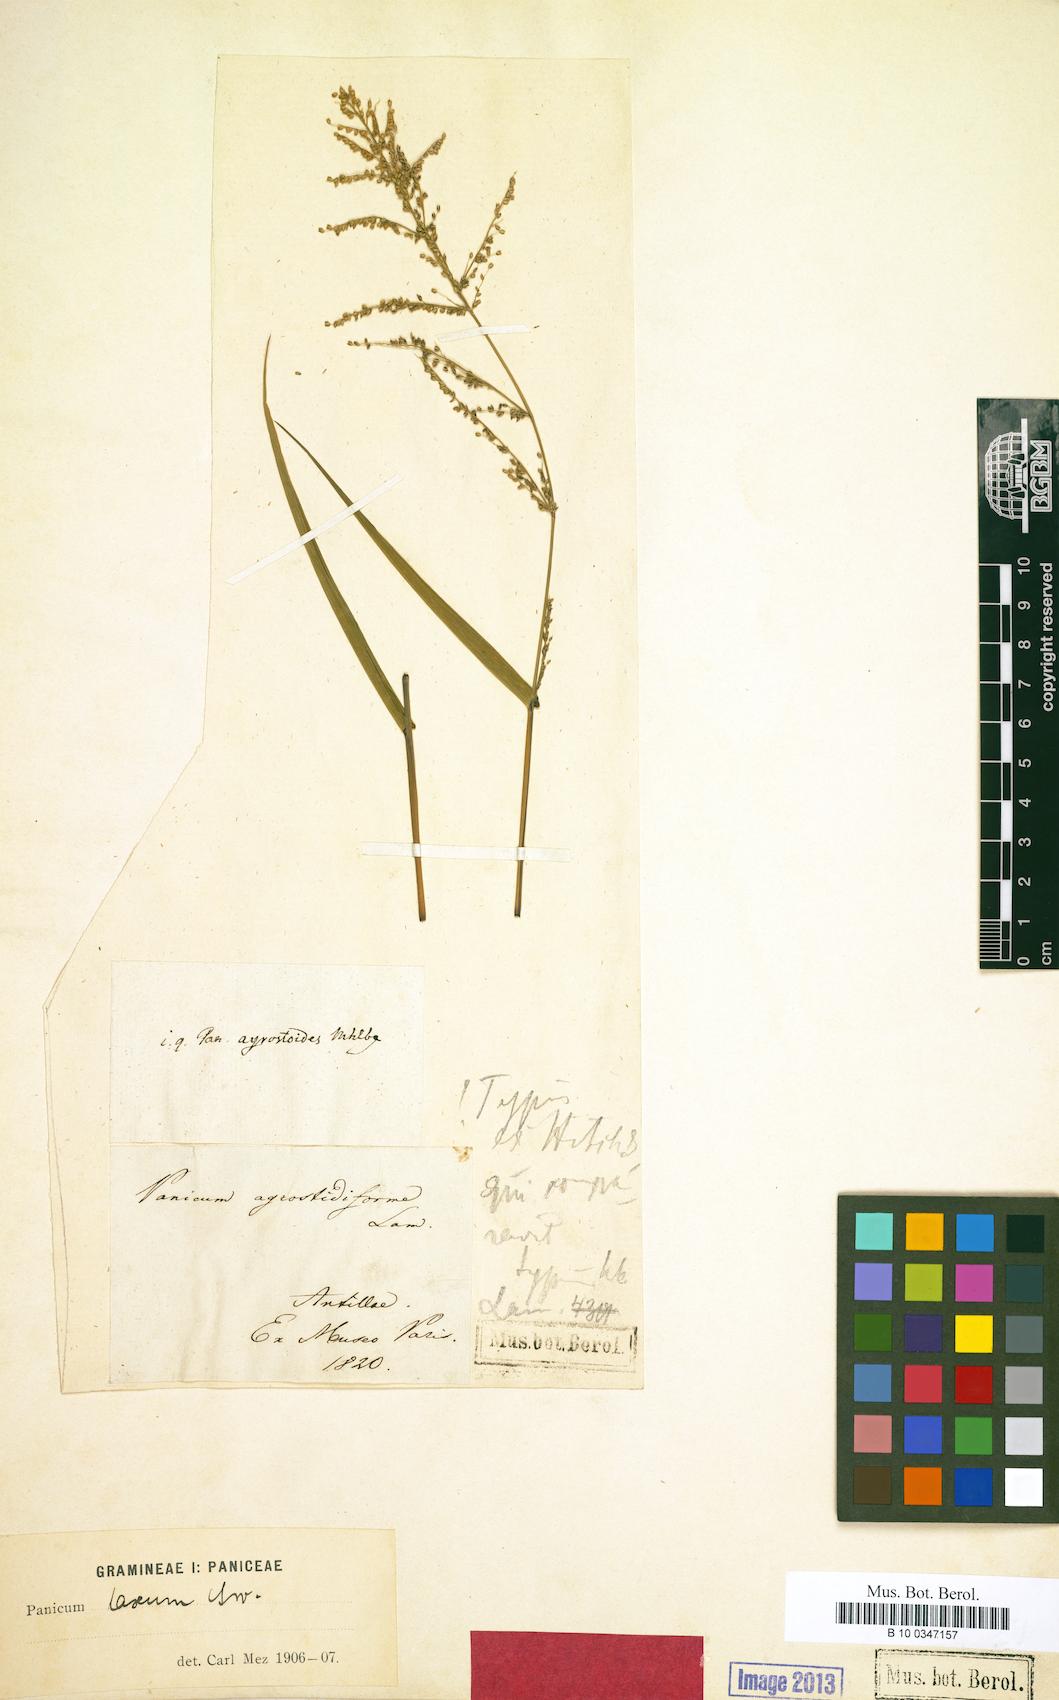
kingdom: Plantae
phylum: Tracheophyta
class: Liliopsida
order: Poales
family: Poaceae
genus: Steinchisma
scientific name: Steinchisma laxum
